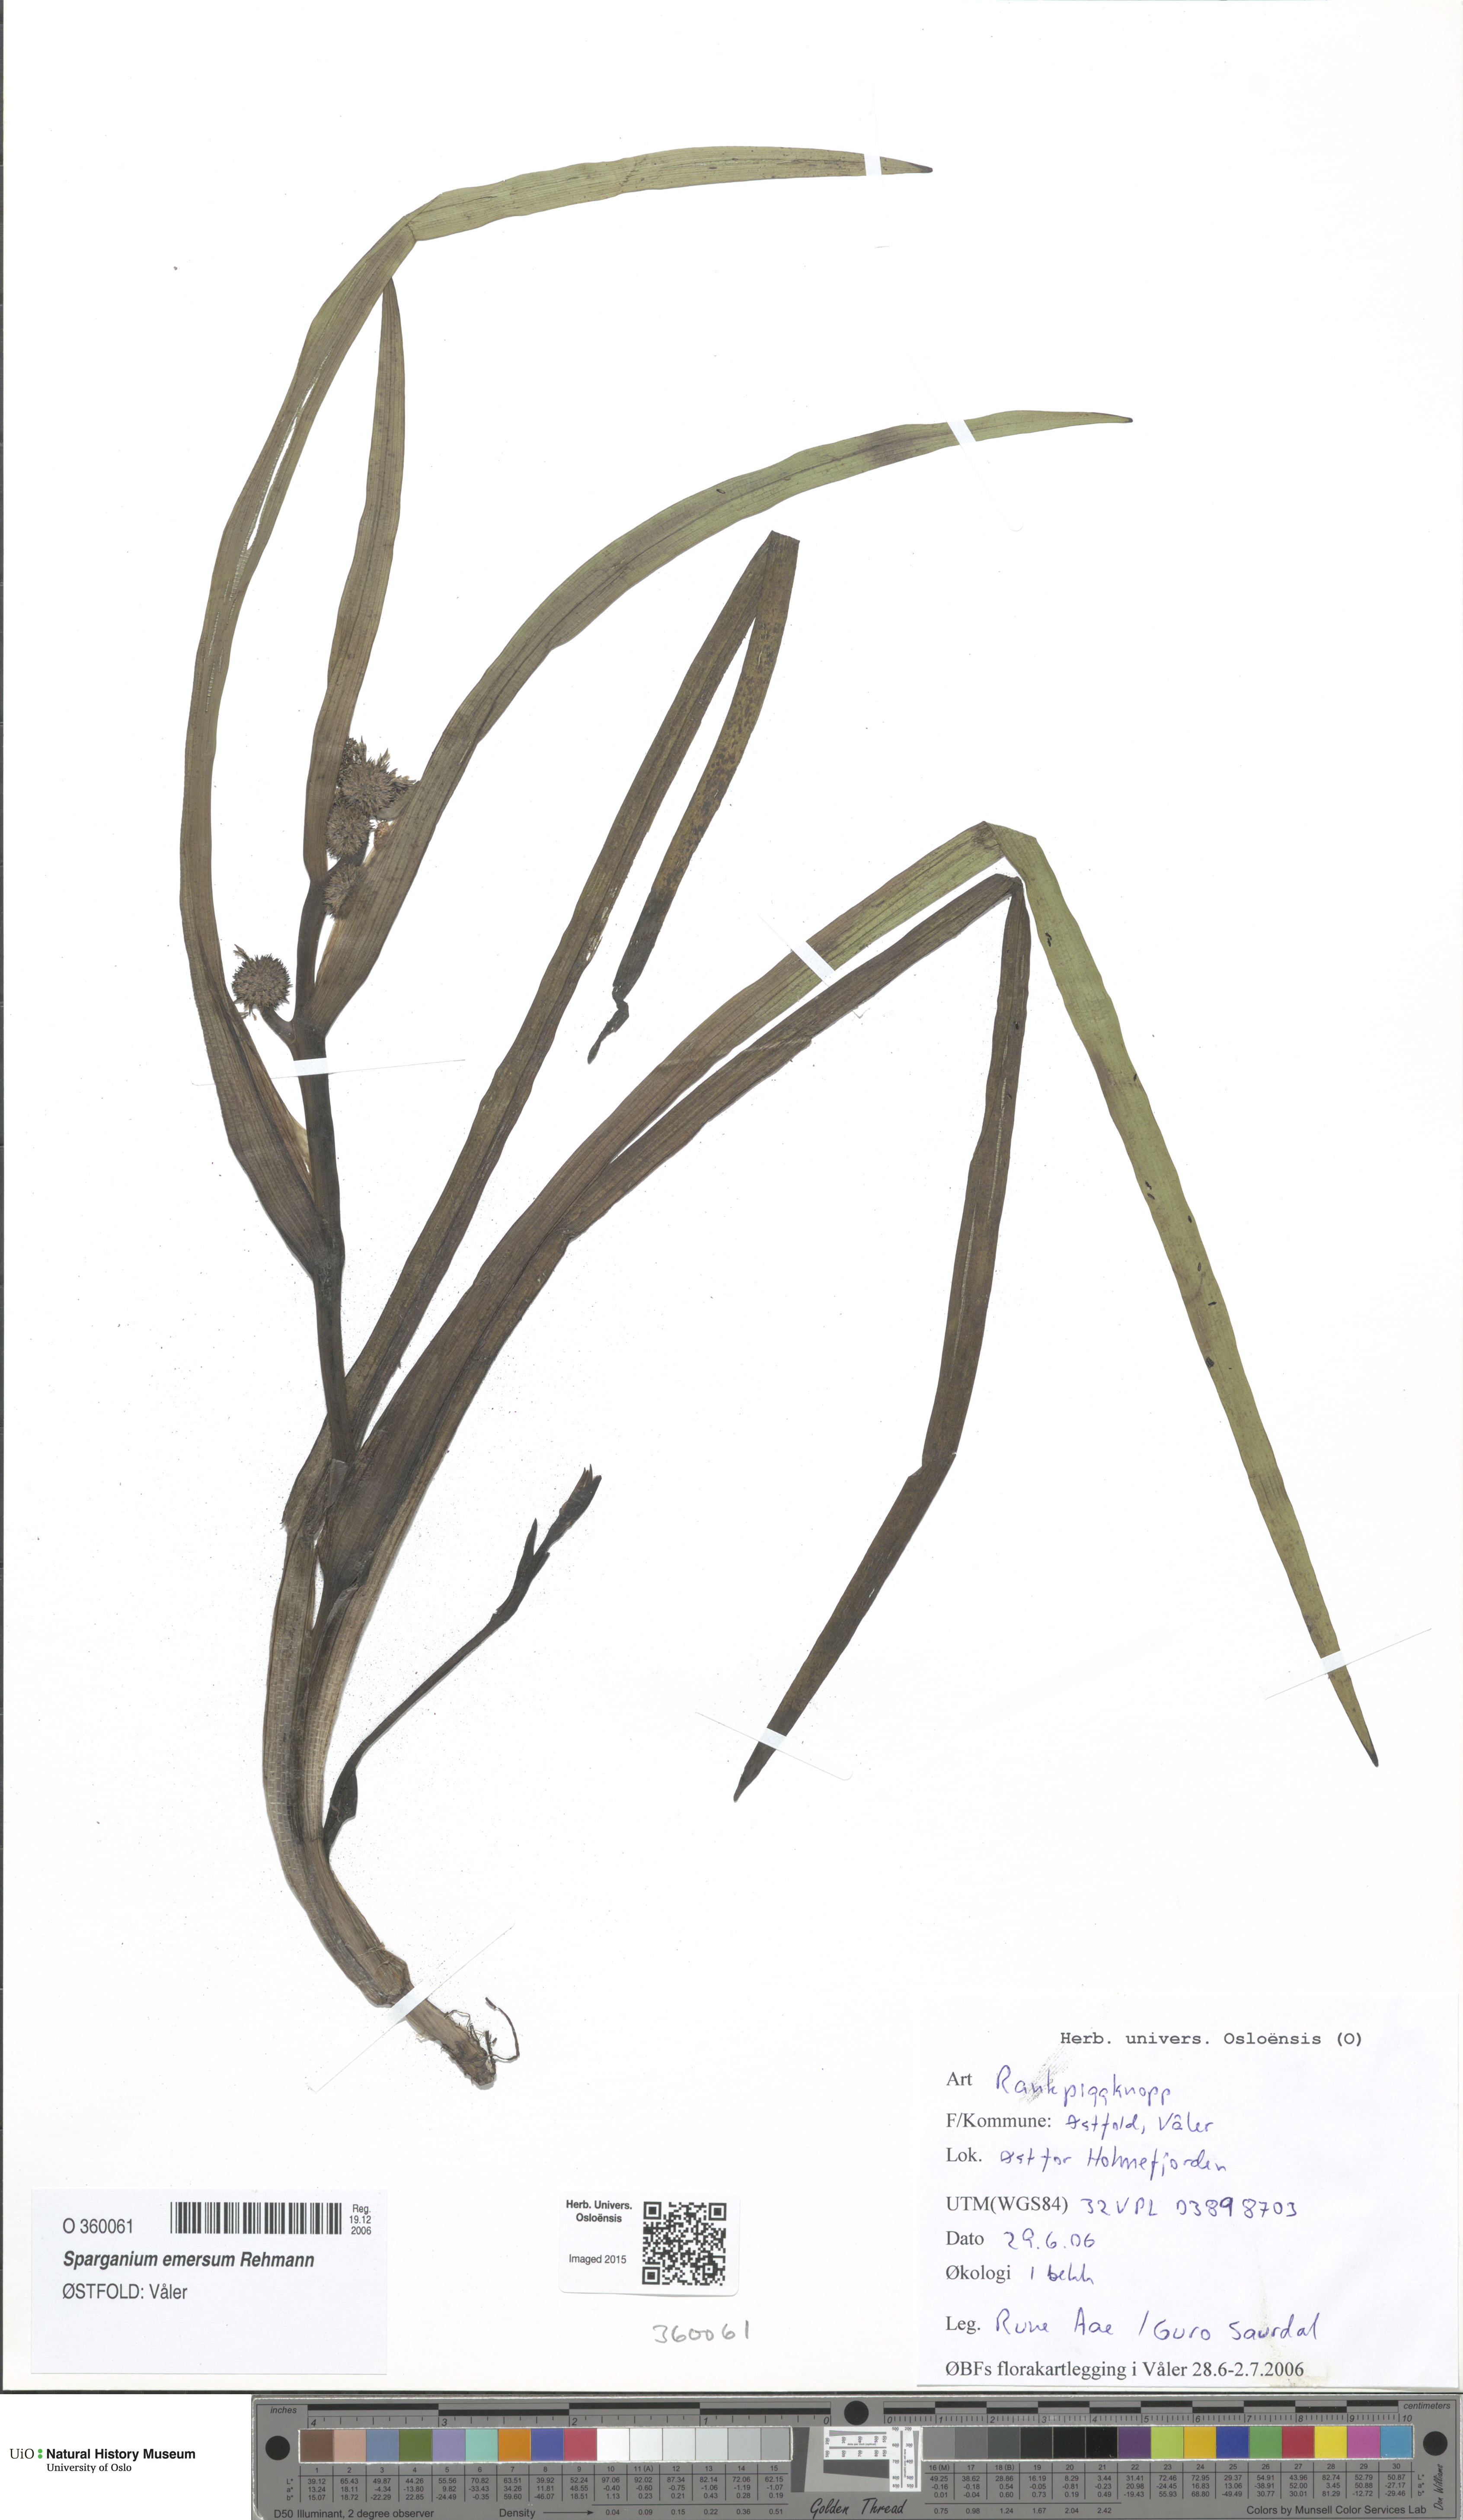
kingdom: Plantae
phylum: Tracheophyta
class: Liliopsida
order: Poales
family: Typhaceae
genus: Sparganium
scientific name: Sparganium emersum
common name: Unbranched bur-reed
